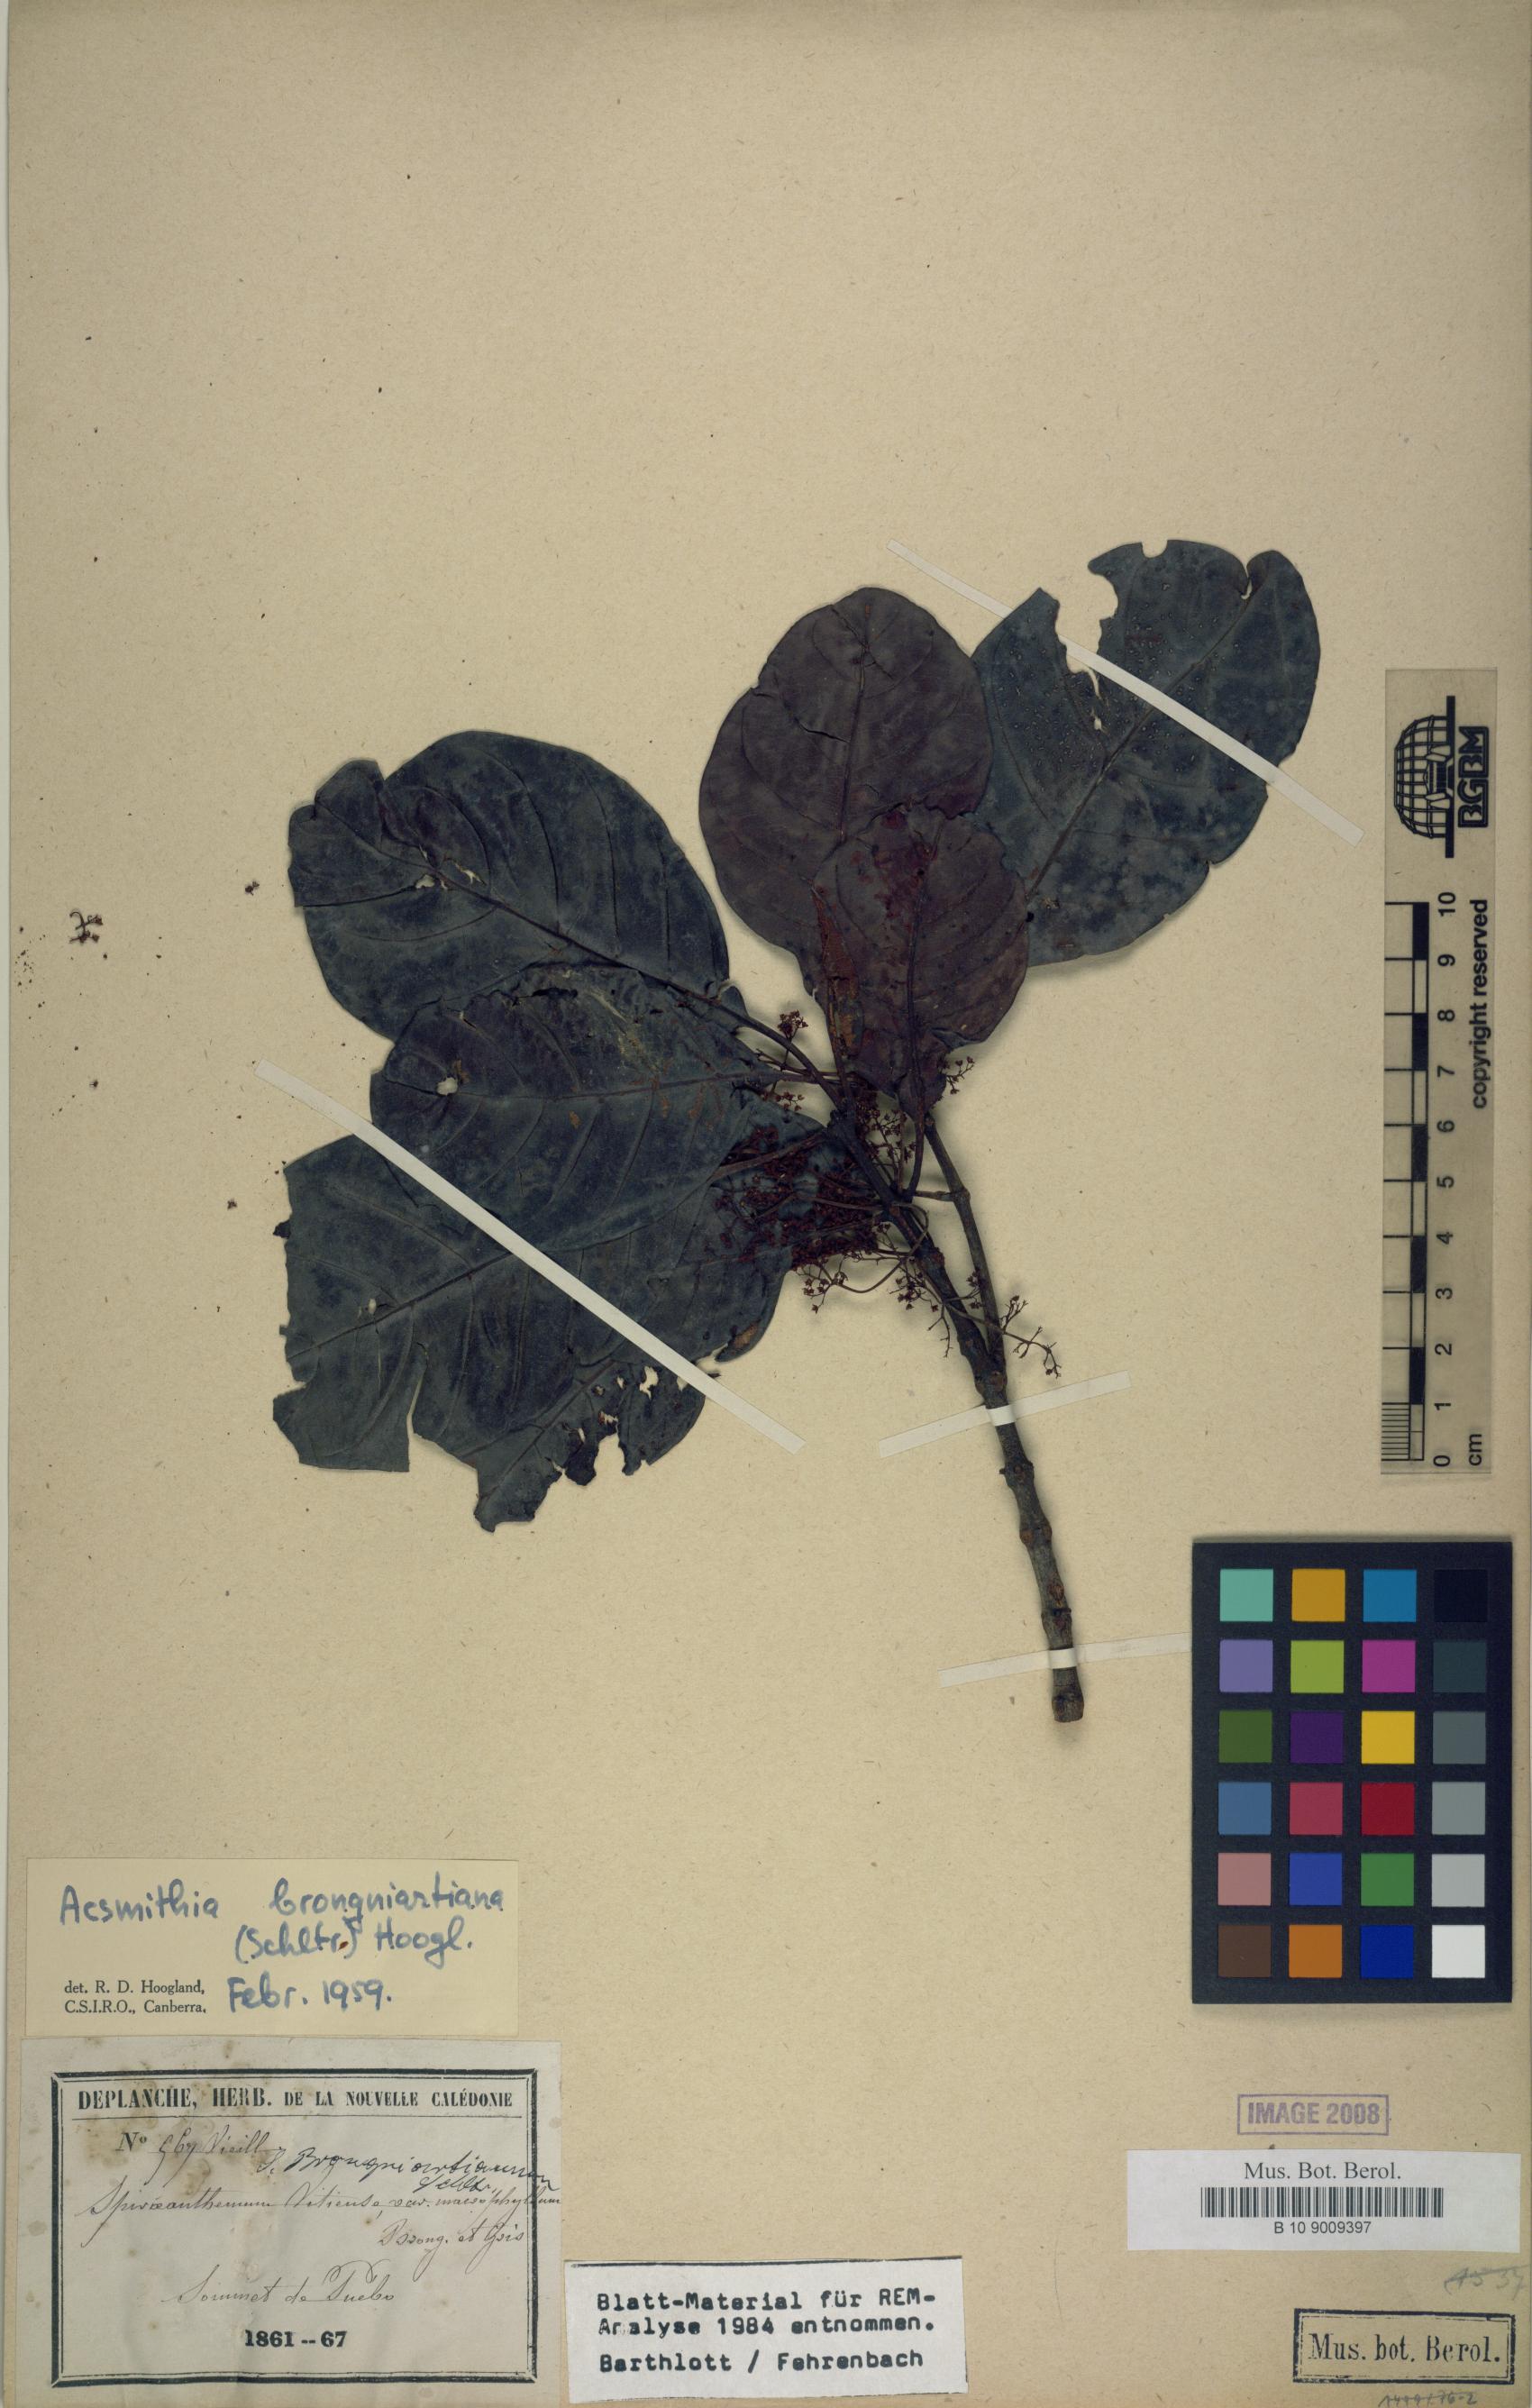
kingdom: Plantae
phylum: Tracheophyta
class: Magnoliopsida
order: Oxalidales
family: Cunoniaceae
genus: Spiraeanthemum
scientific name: Spiraeanthemum brongniartianum
